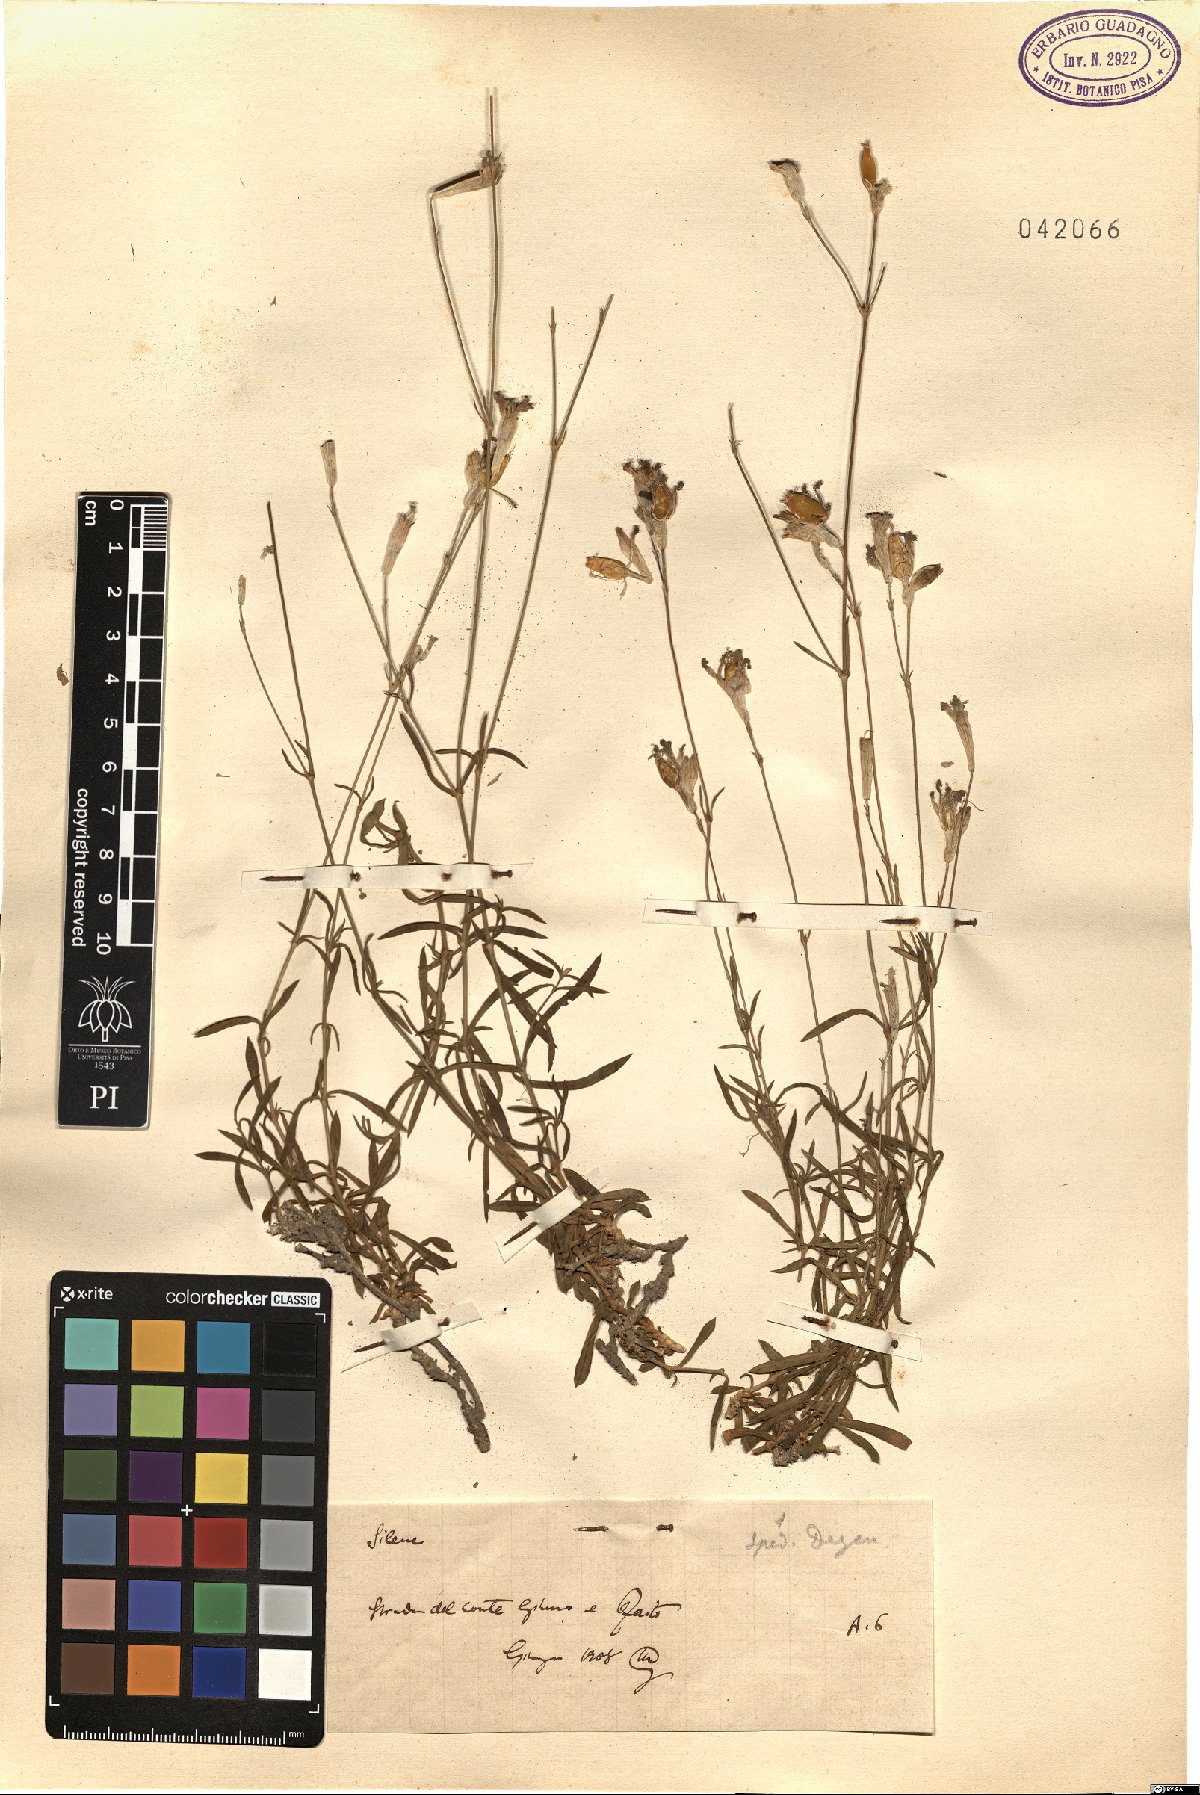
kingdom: Plantae
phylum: Tracheophyta
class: Magnoliopsida
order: Caryophyllales
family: Caryophyllaceae
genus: Silene
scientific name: Silene
